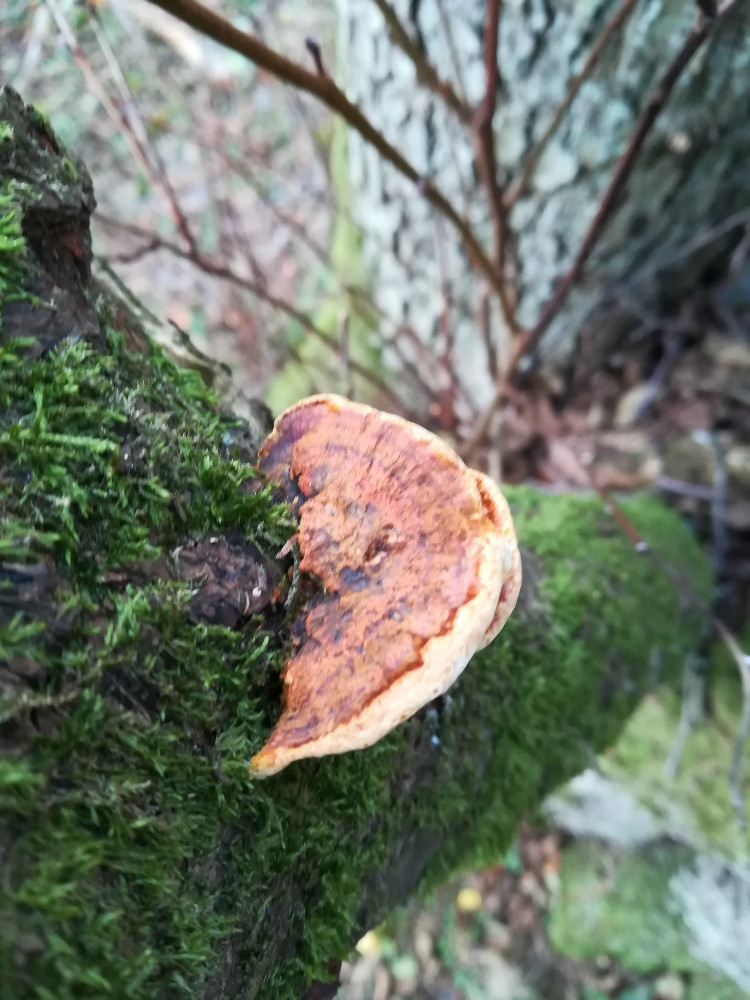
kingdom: Fungi
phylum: Basidiomycota
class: Agaricomycetes
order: Hymenochaetales
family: Hymenochaetaceae
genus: Xanthoporia
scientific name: Xanthoporia radiata
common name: elle-spejlporesvamp
